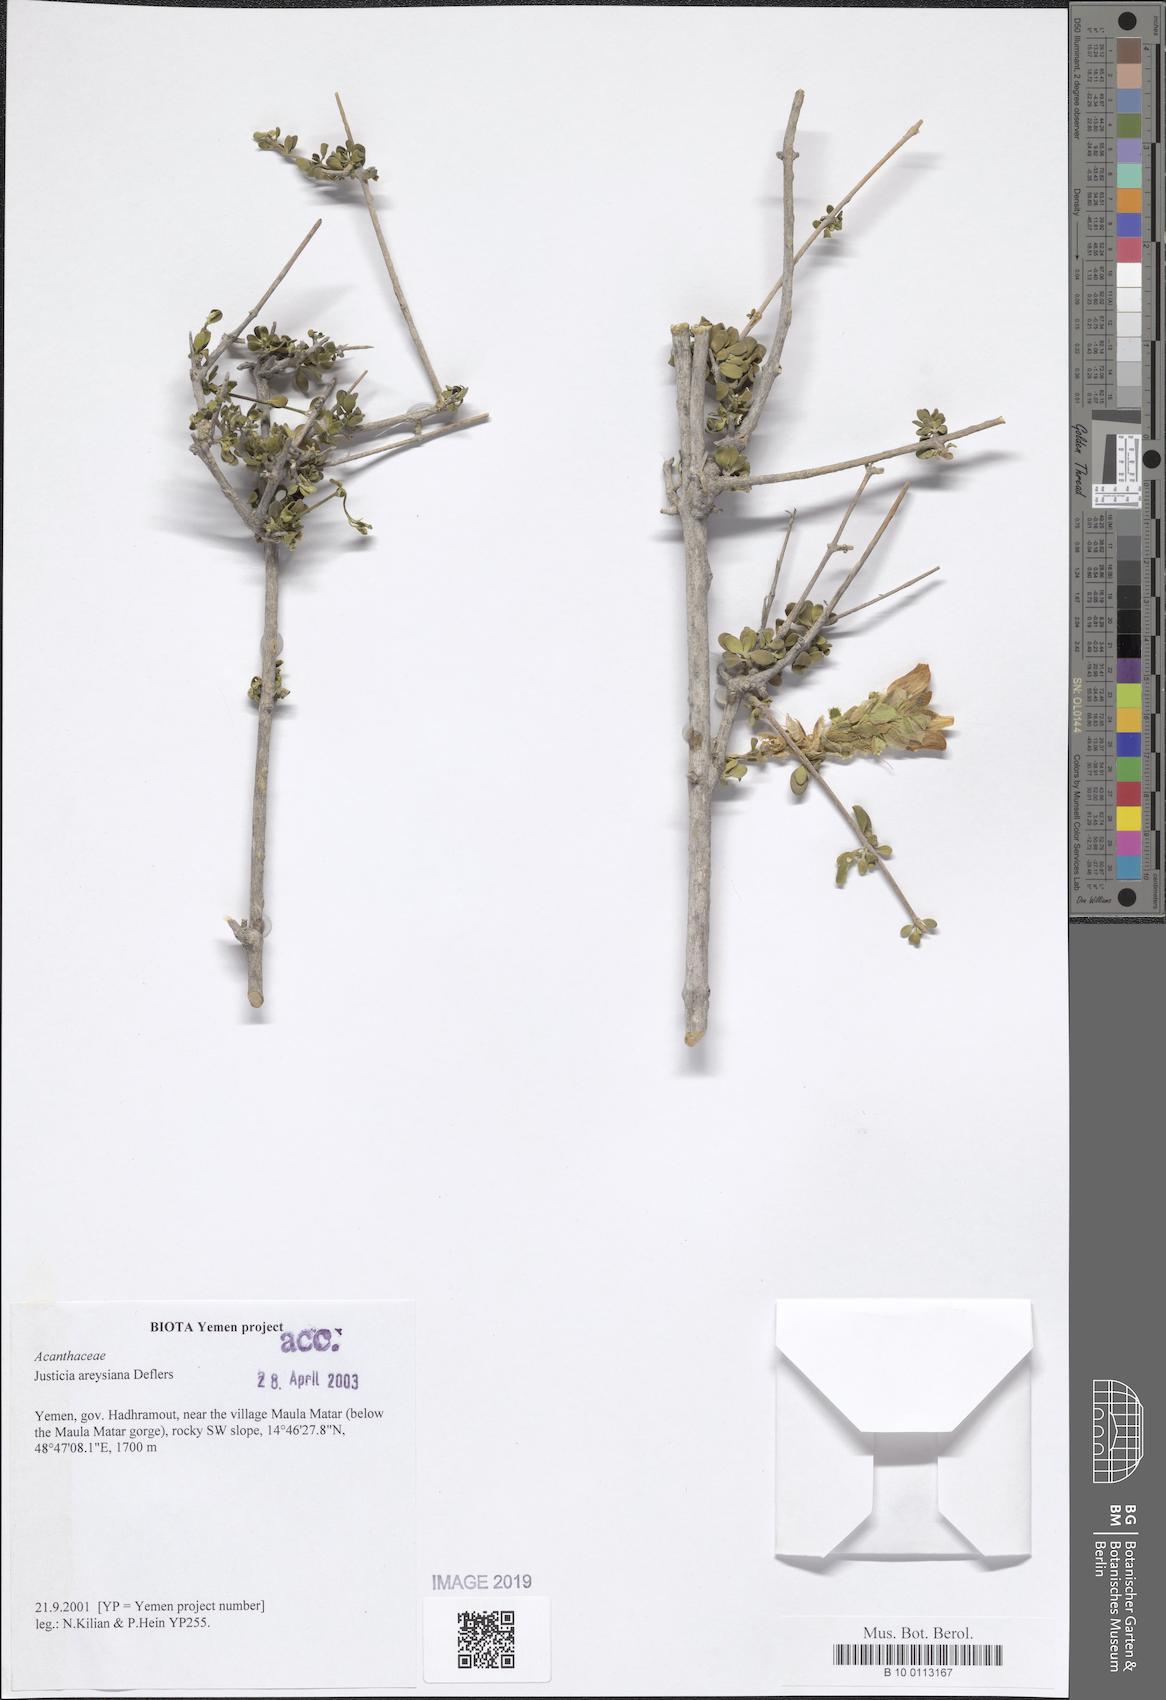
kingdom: Plantae
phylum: Tracheophyta
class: Magnoliopsida
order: Lamiales
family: Acanthaceae
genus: Justicia
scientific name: Justicia areysiana
